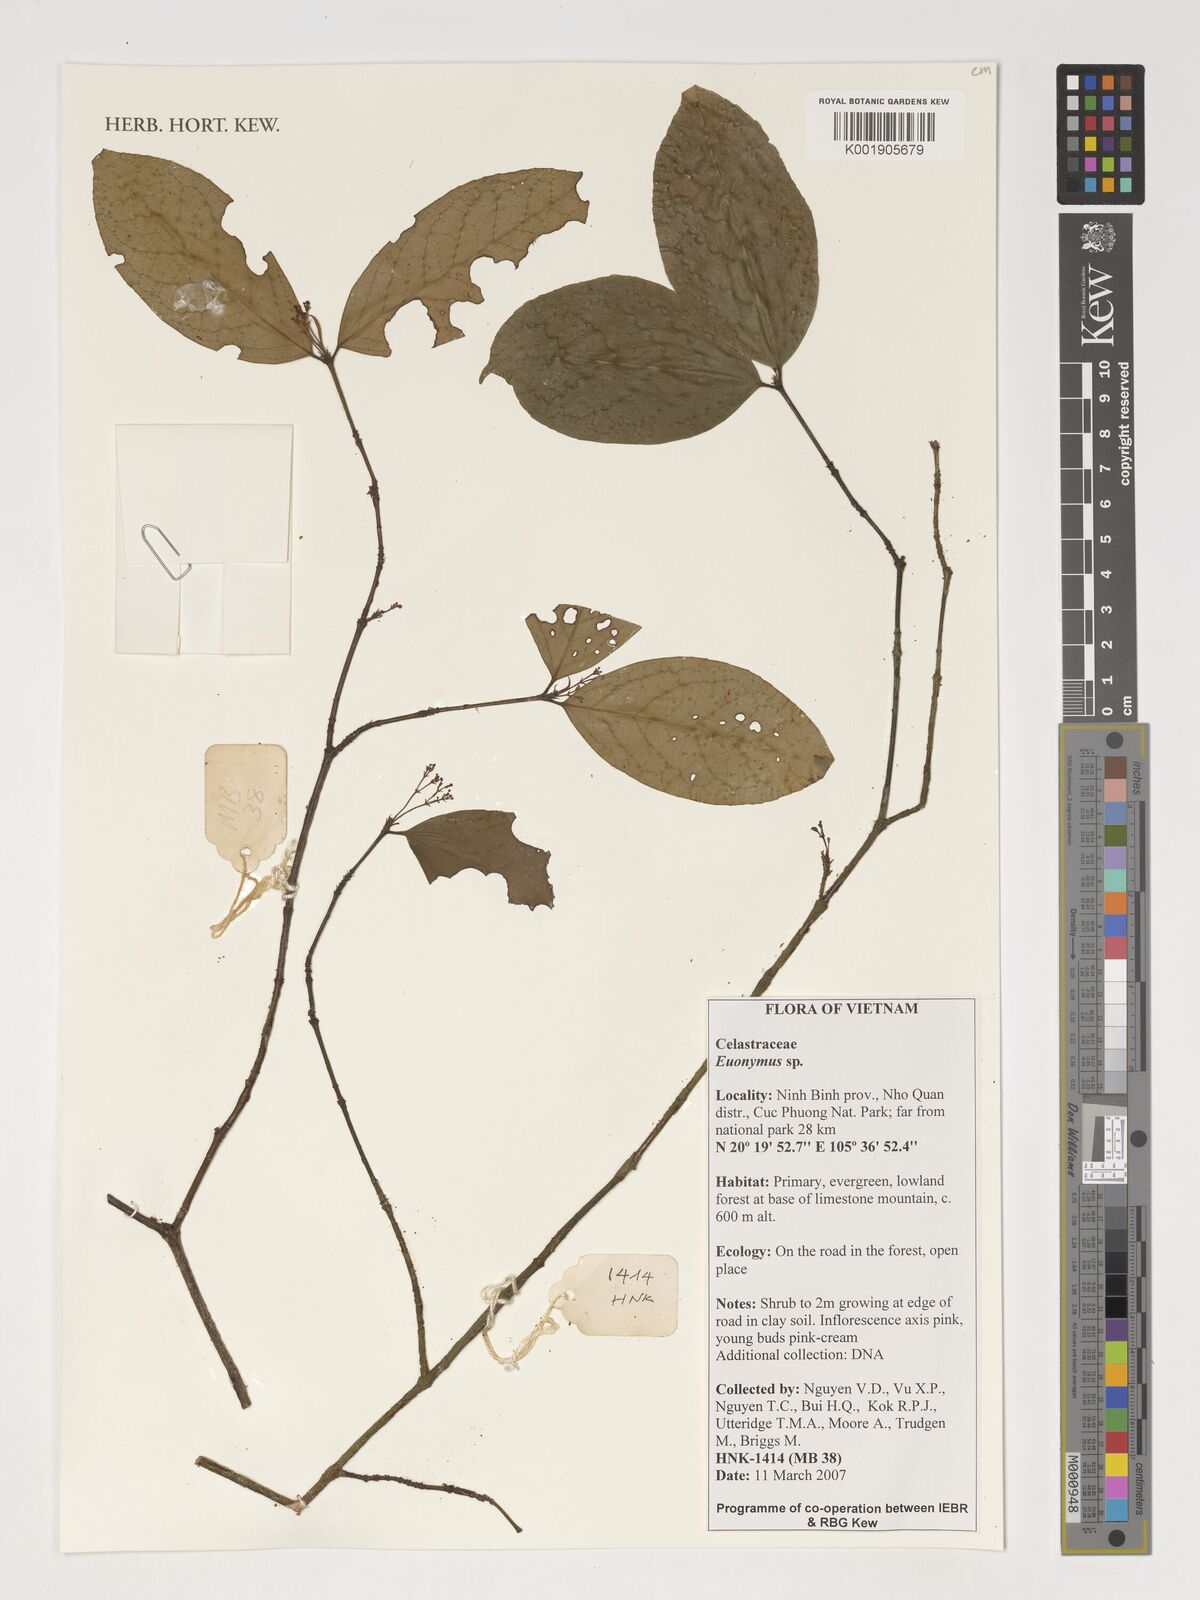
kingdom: Plantae
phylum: Tracheophyta
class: Magnoliopsida
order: Celastrales
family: Celastraceae
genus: Euonymus
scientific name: Euonymus
